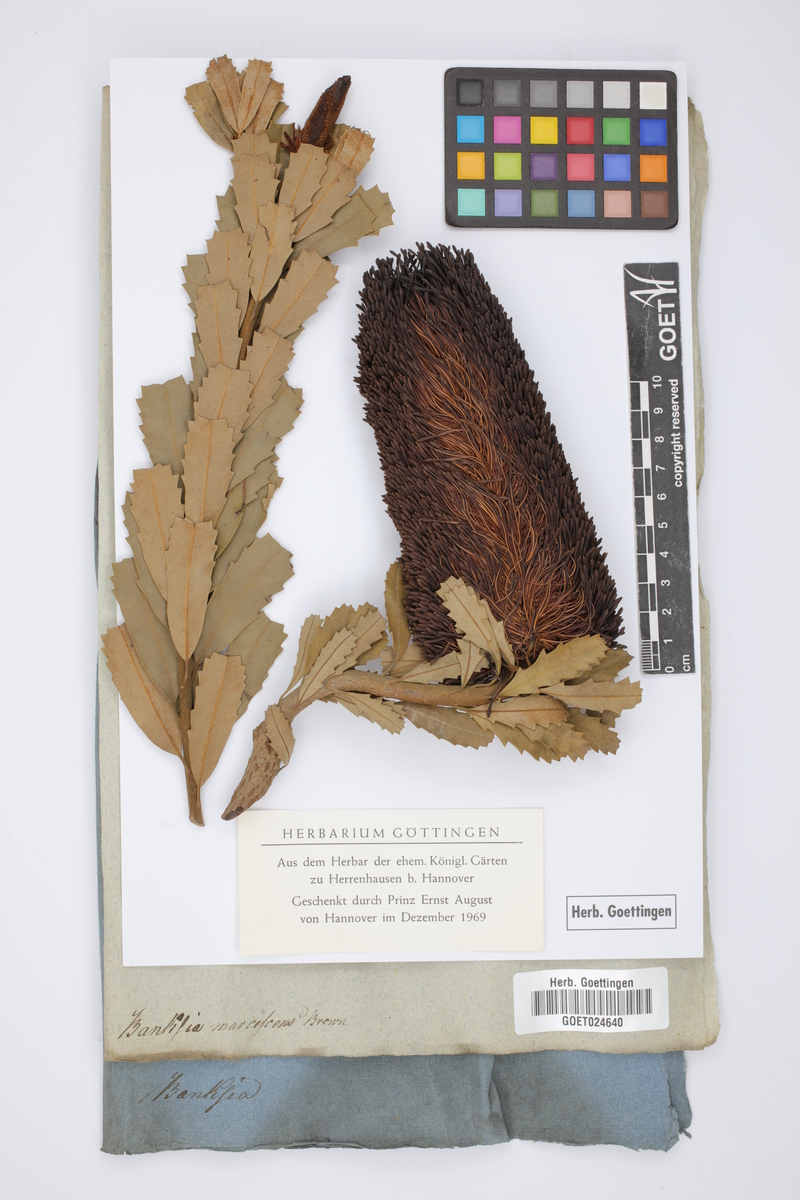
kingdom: Plantae
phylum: Tracheophyta
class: Magnoliopsida
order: Proteales
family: Proteaceae
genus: Banksia
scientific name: Banksia praemorsa
